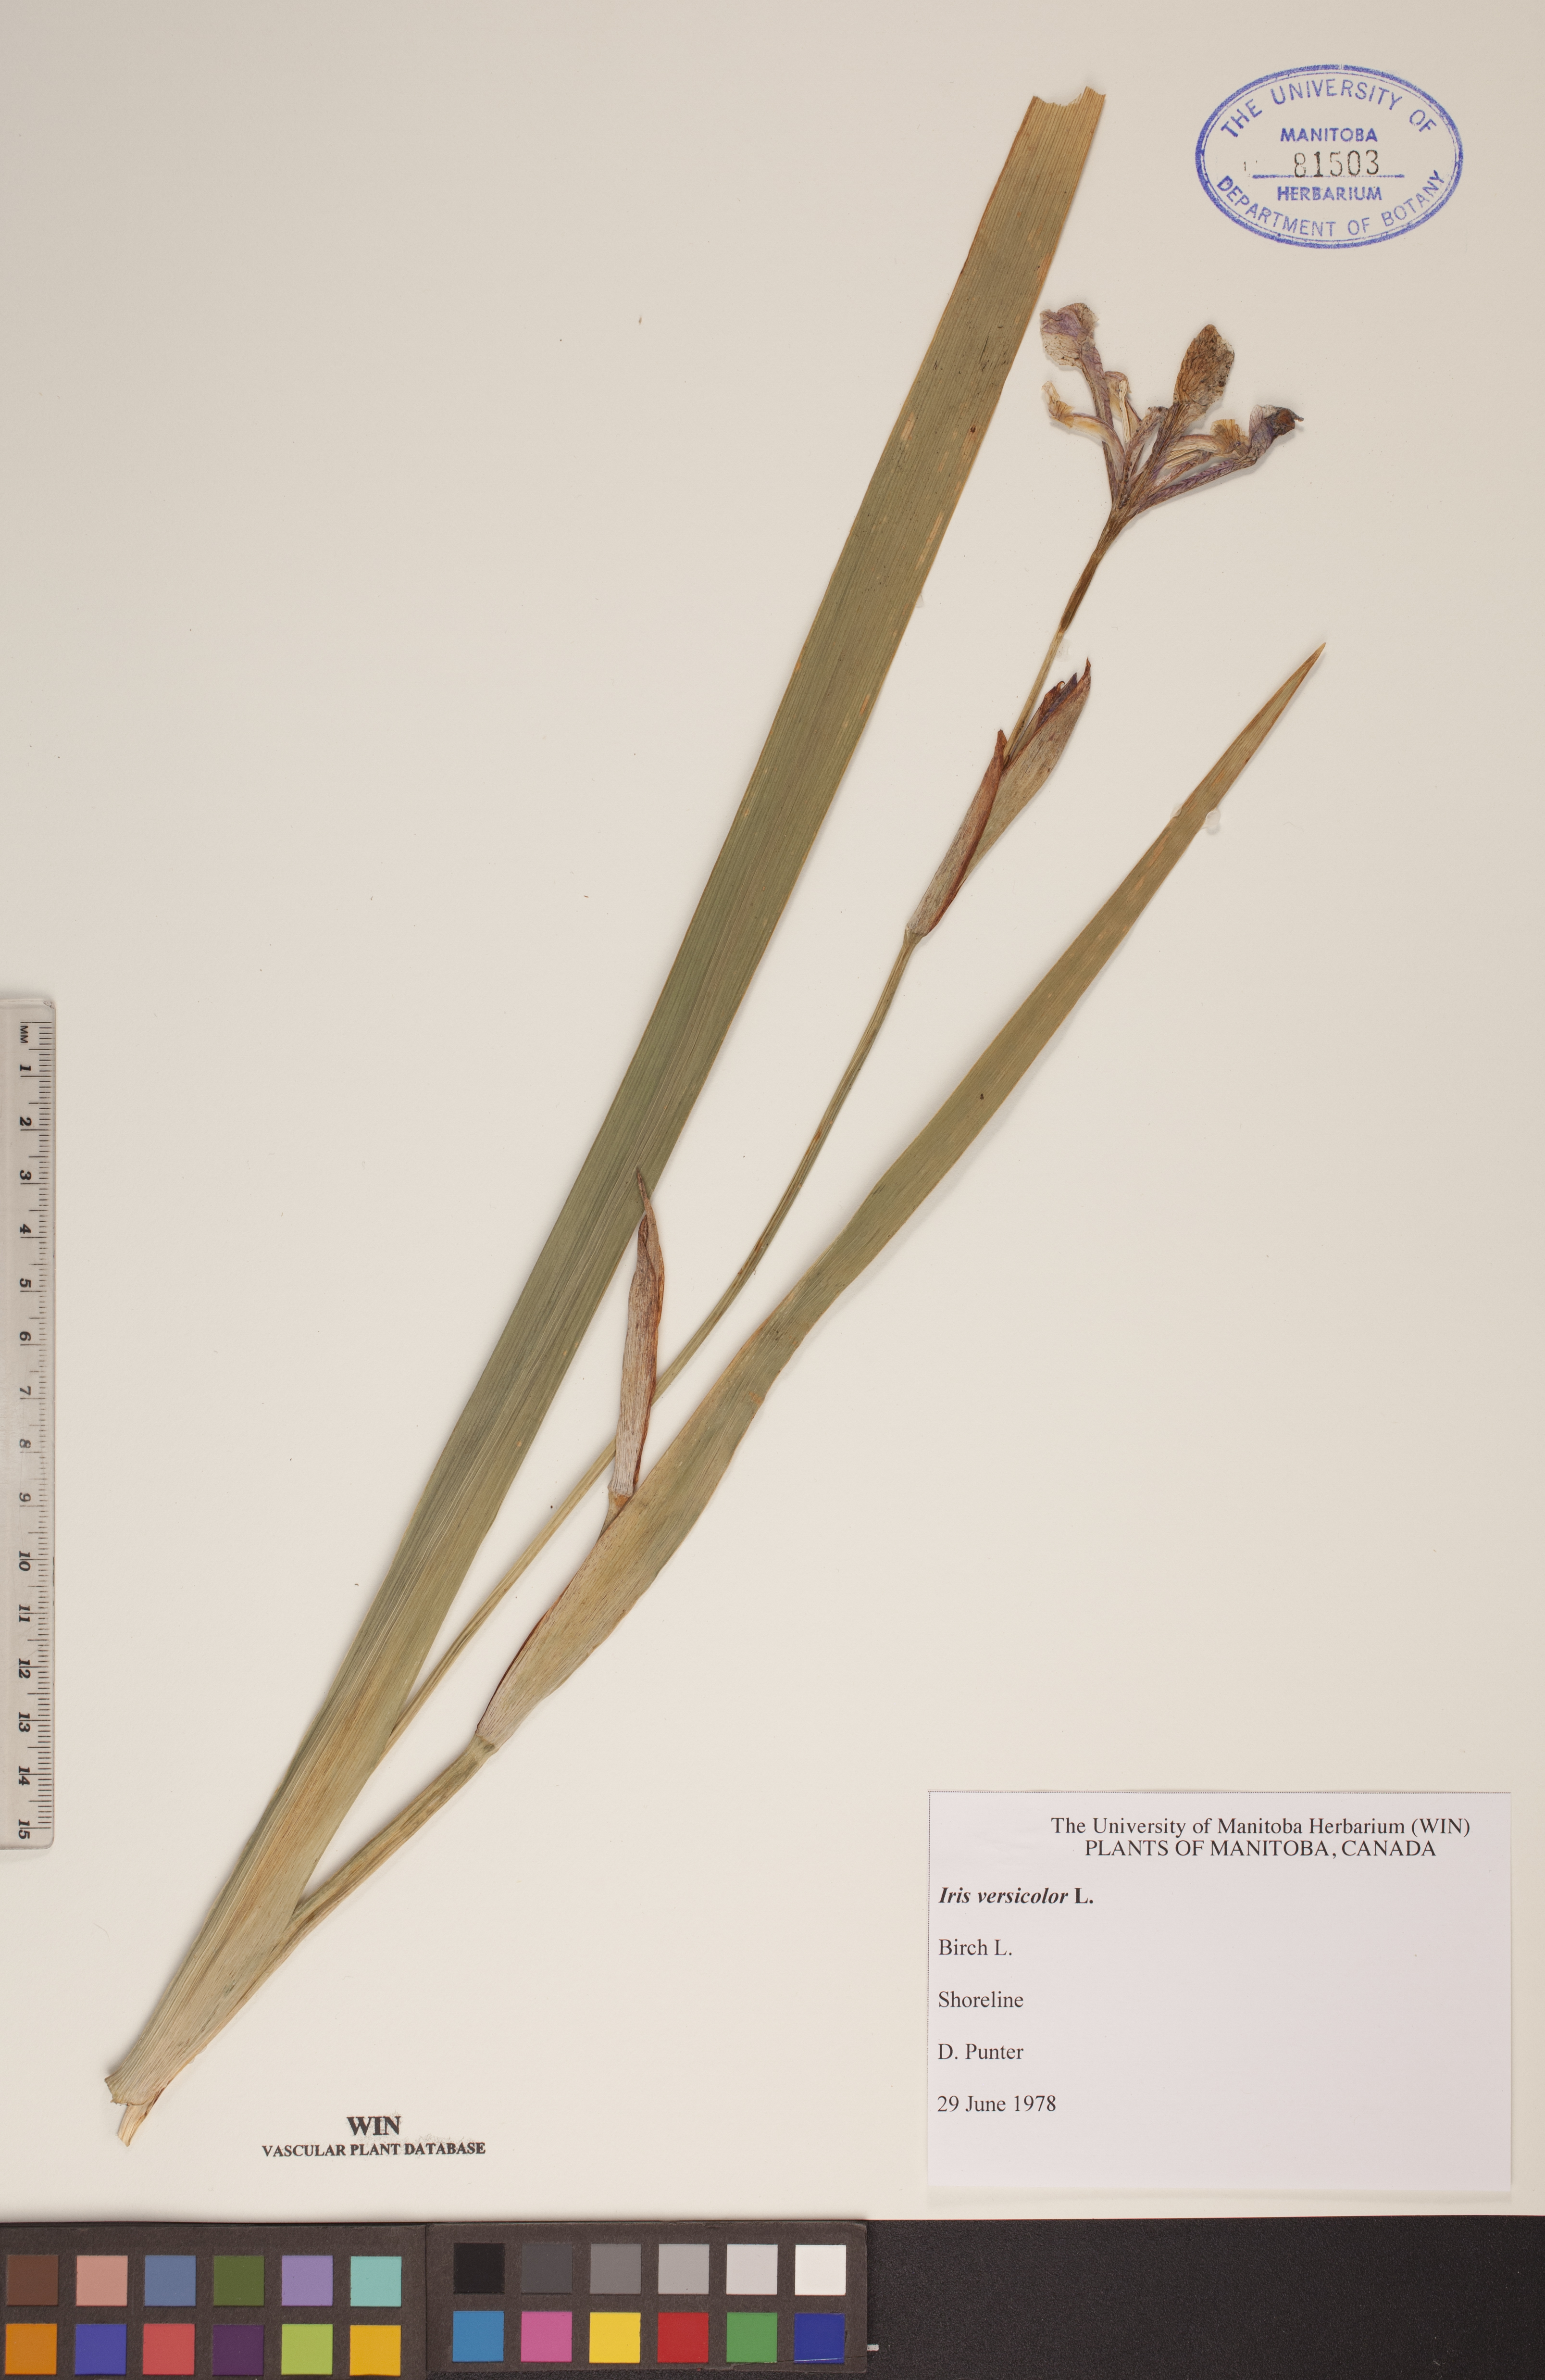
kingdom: Plantae
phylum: Tracheophyta
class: Liliopsida
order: Asparagales
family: Iridaceae
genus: Iris
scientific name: Iris versicolor
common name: Purple iris
